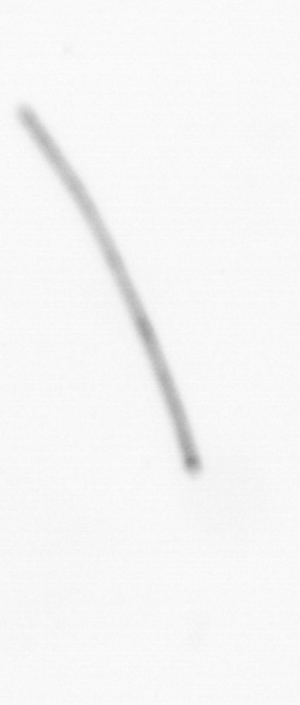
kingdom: Chromista
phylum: Ochrophyta
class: Bacillariophyceae
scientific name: Bacillariophyceae
